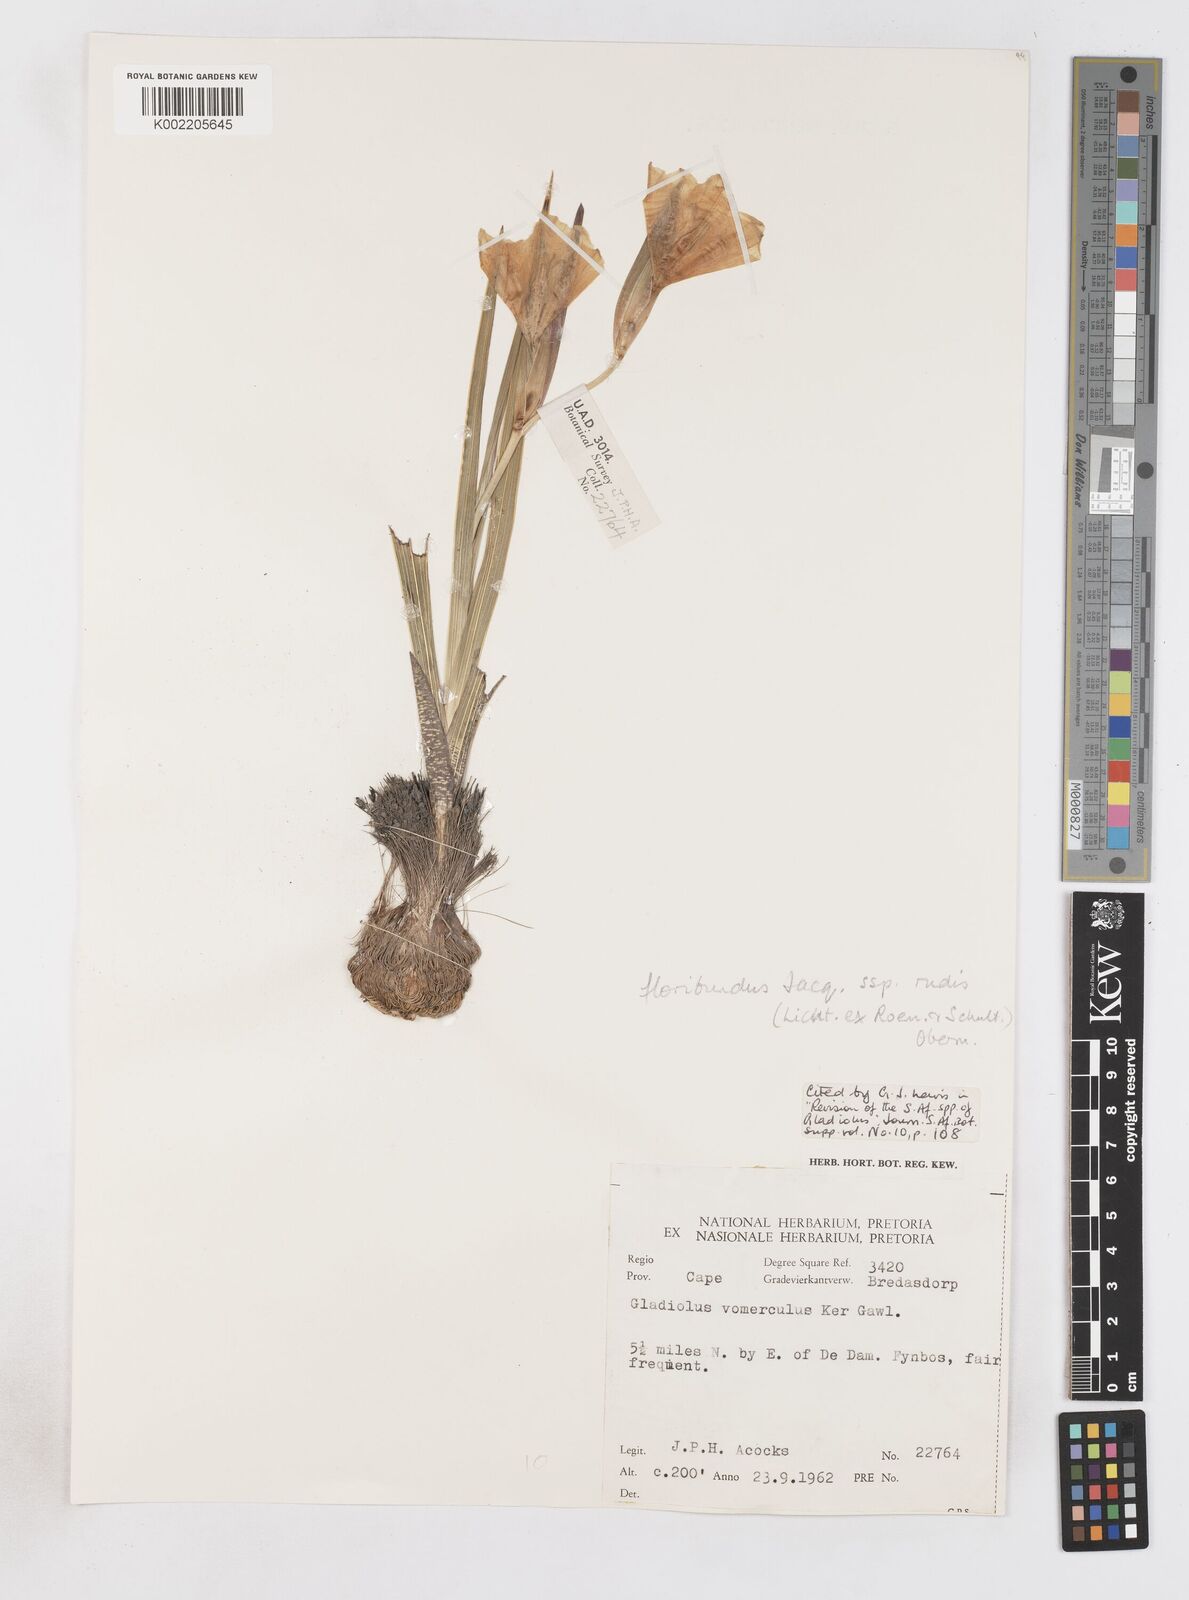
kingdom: Plantae
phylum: Tracheophyta
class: Liliopsida
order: Asparagales
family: Iridaceae
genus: Gladiolus
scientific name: Gladiolus rudis
